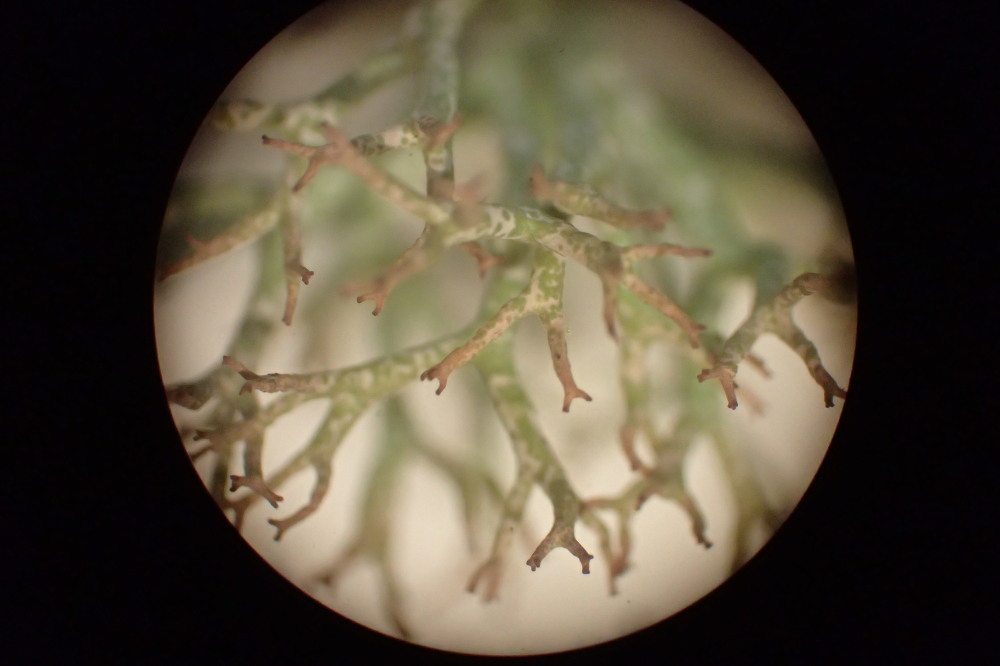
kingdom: Fungi
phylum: Ascomycota
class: Lecanoromycetes
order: Lecanorales
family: Cladoniaceae
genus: Cladonia
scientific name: Cladonia rangiformis
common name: spættet bægerlav
